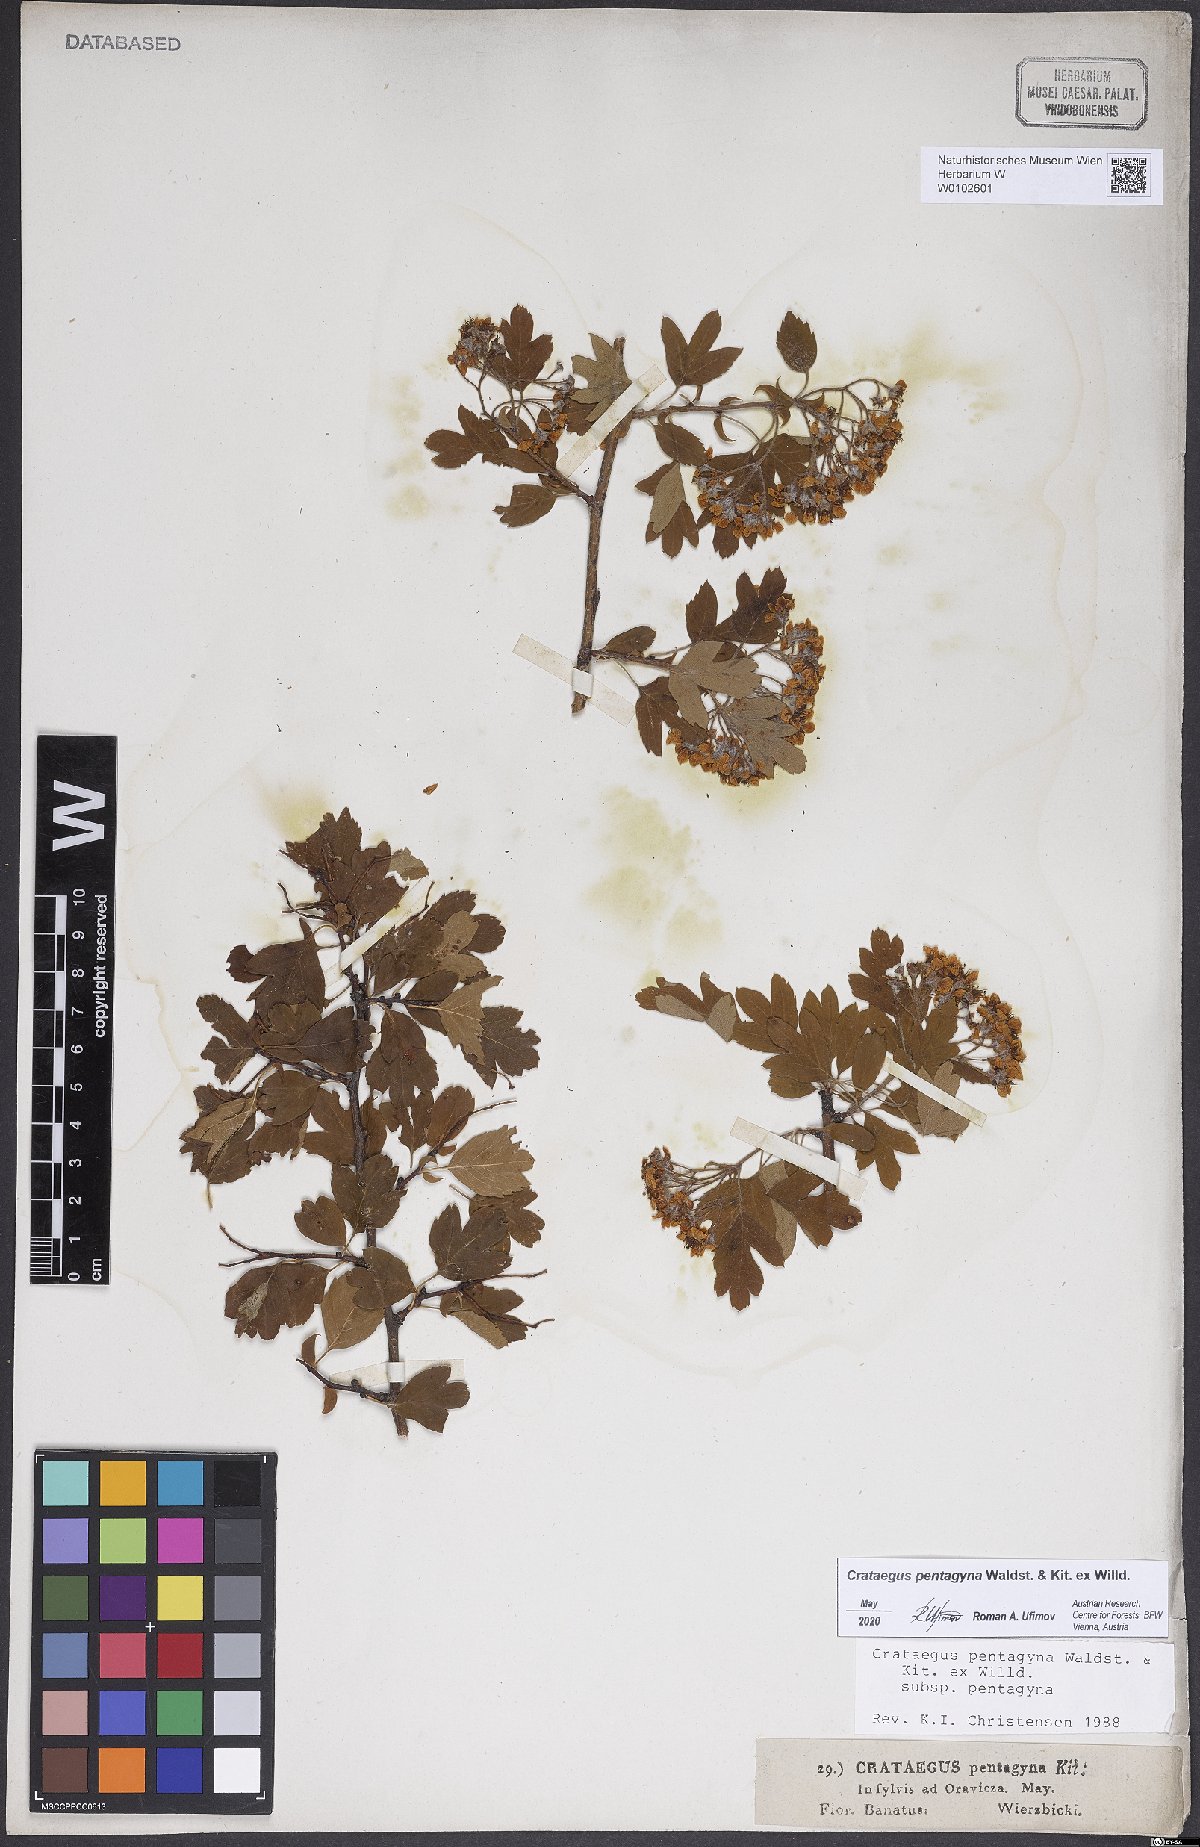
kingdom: Plantae
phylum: Tracheophyta
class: Magnoliopsida
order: Rosales
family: Rosaceae
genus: Crataegus
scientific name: Crataegus pentagyna
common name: Small-flowered black hawthorn
